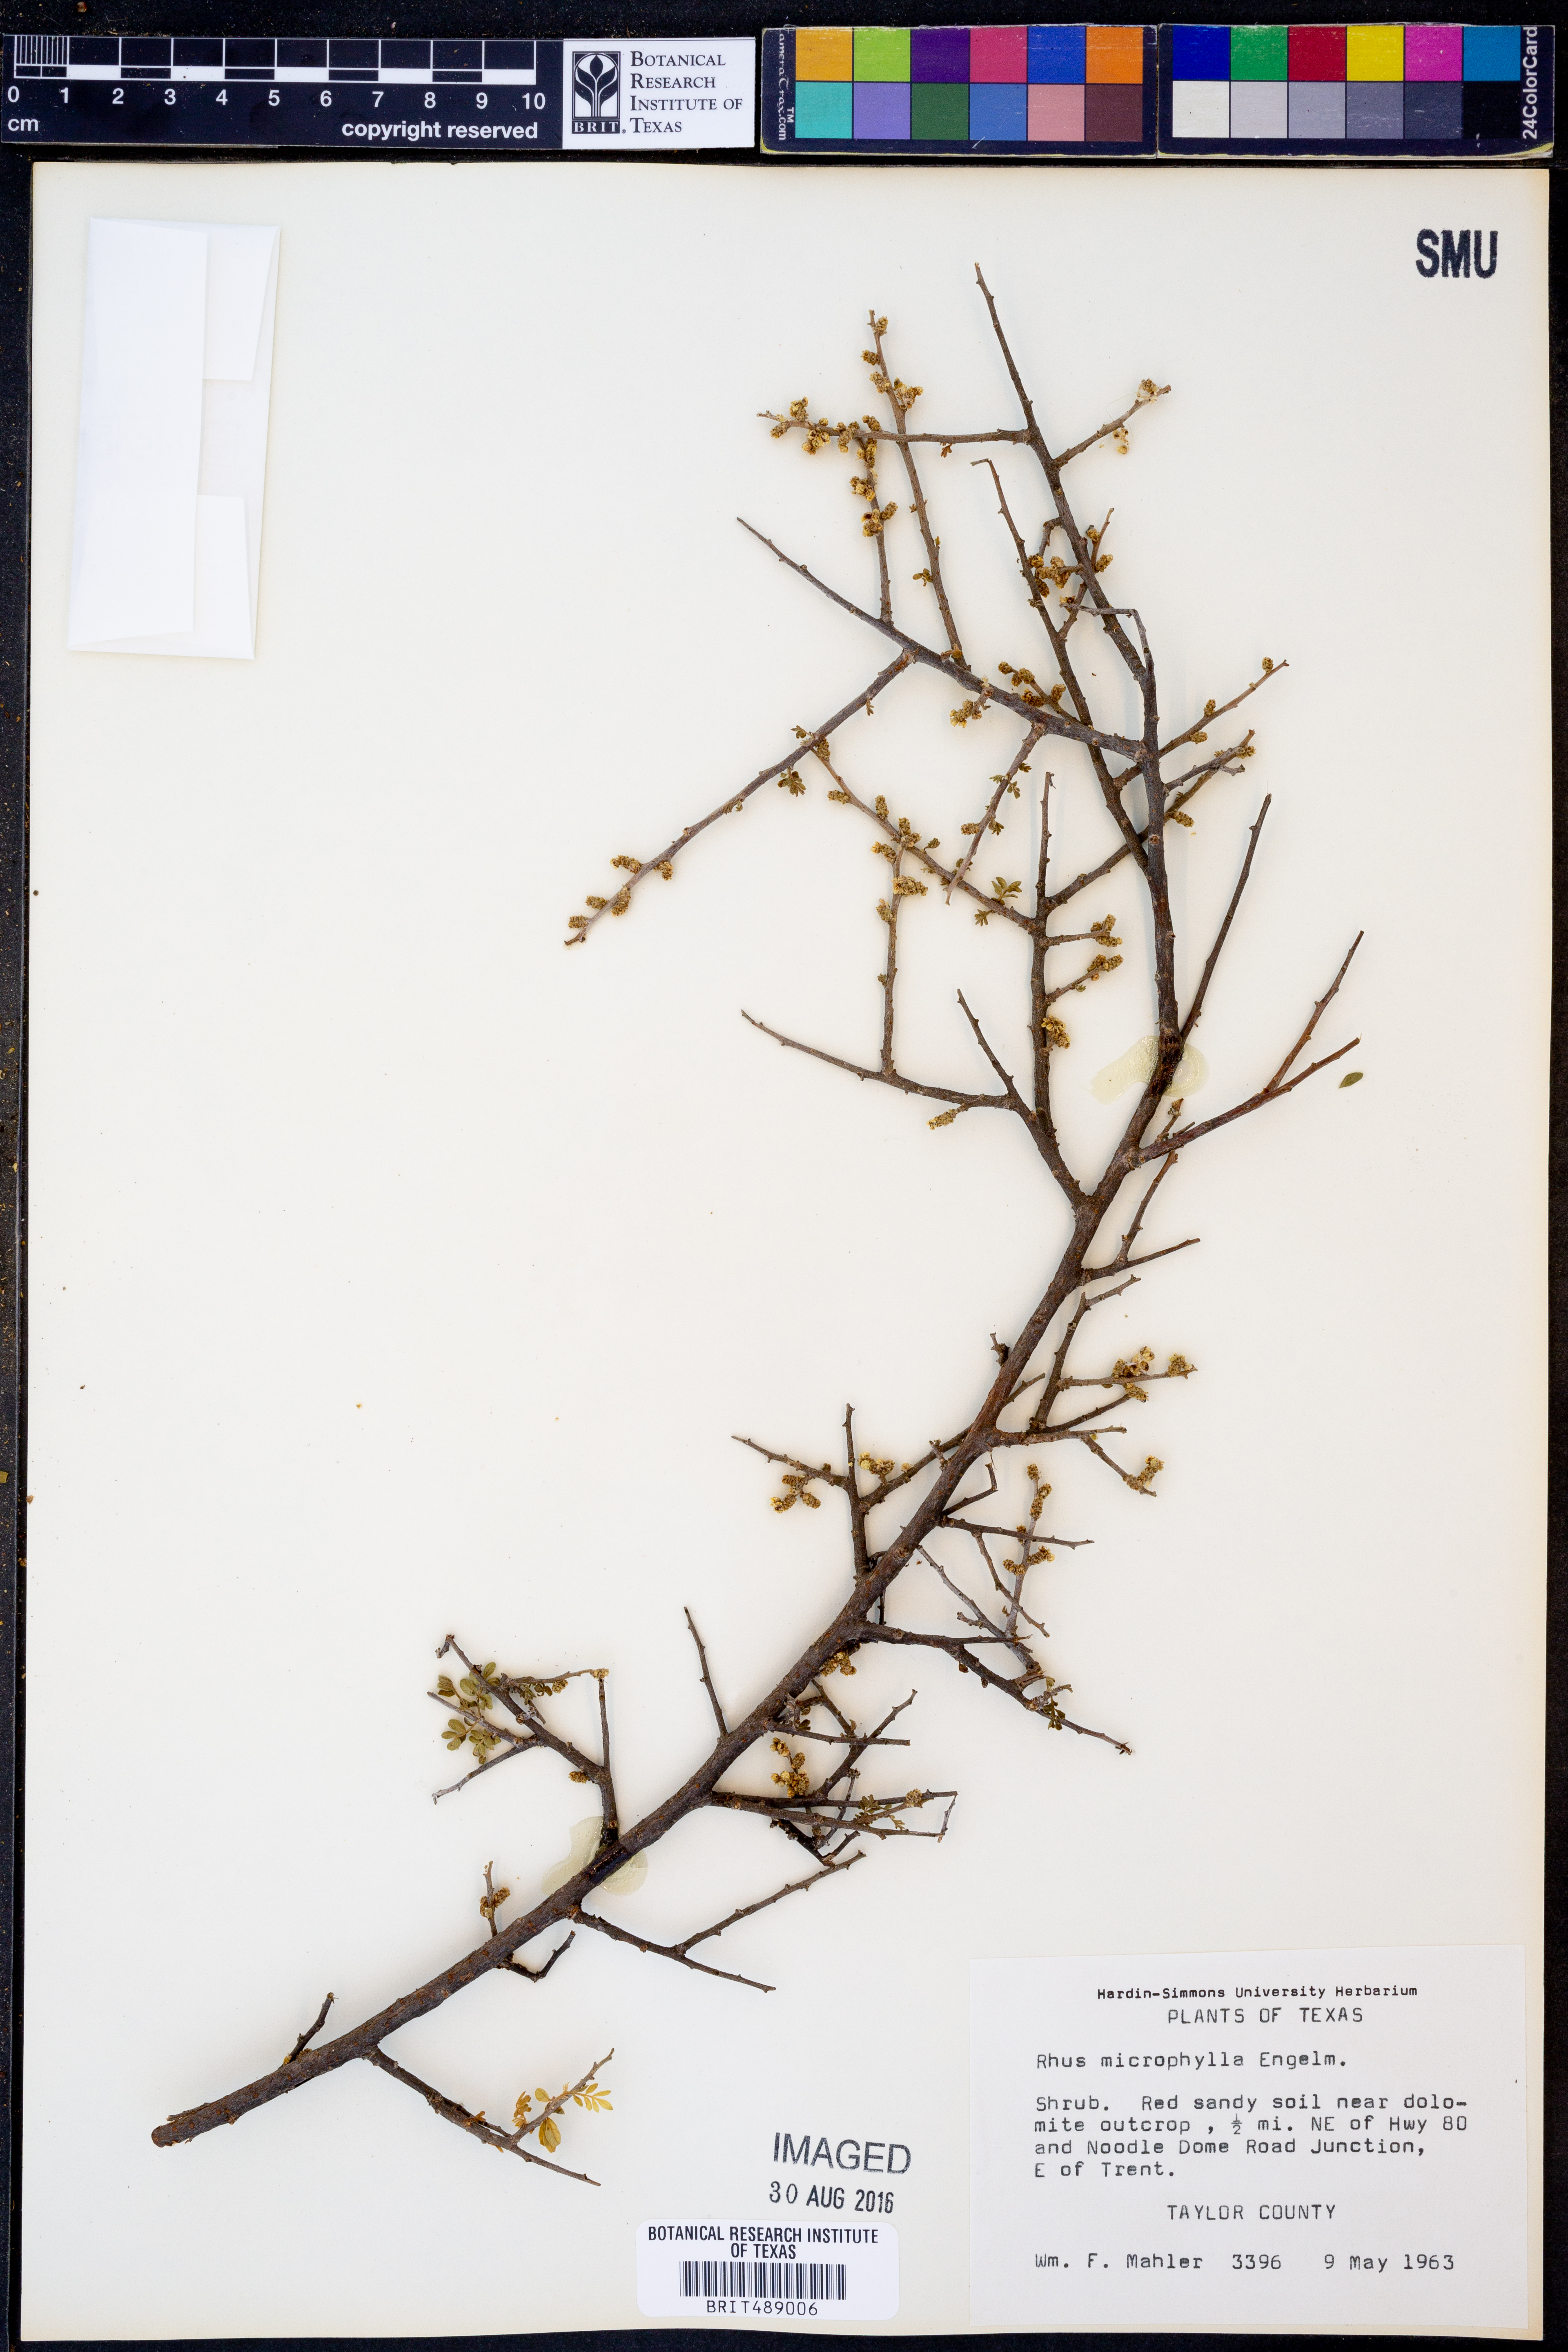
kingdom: Plantae
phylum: Tracheophyta
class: Magnoliopsida
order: Sapindales
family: Anacardiaceae
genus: Rhus
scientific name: Rhus microphylla
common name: Desert sumac
